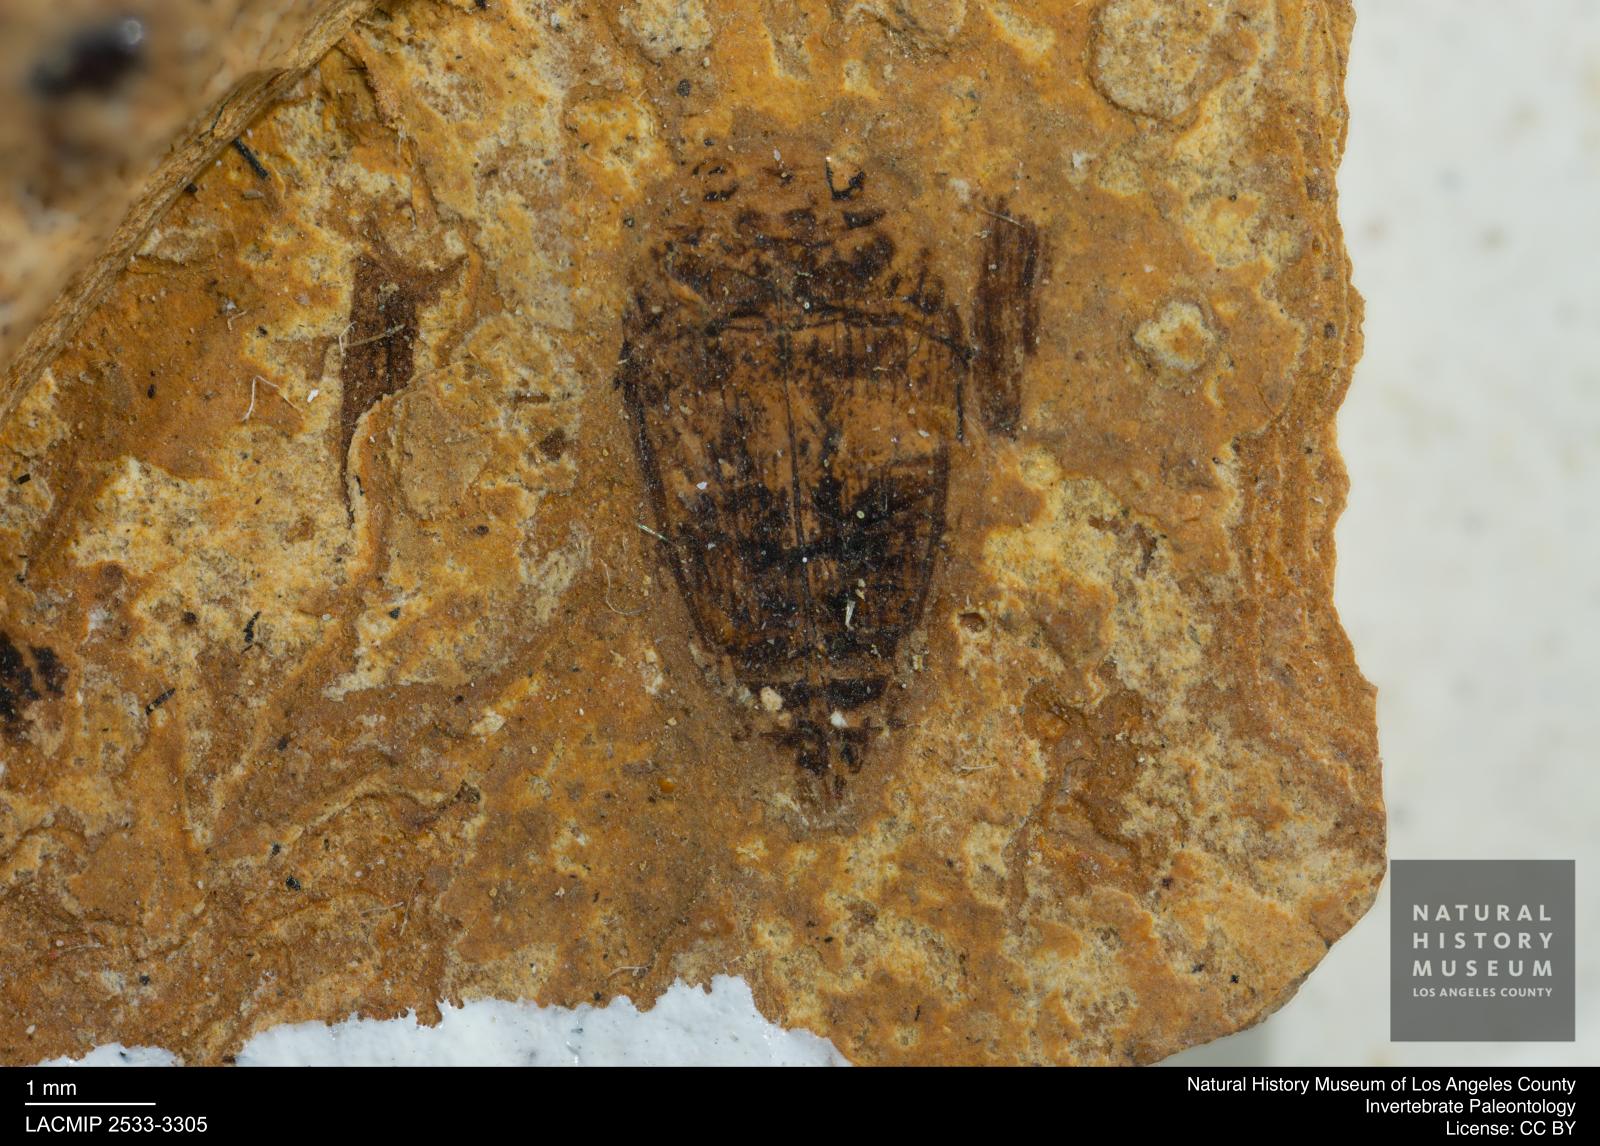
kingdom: Animalia
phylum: Arthropoda
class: Insecta
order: Coleoptera
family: Dytiscidae
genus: Laccophilus
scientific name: Laccophilus Palaeogyrinus strigatus
